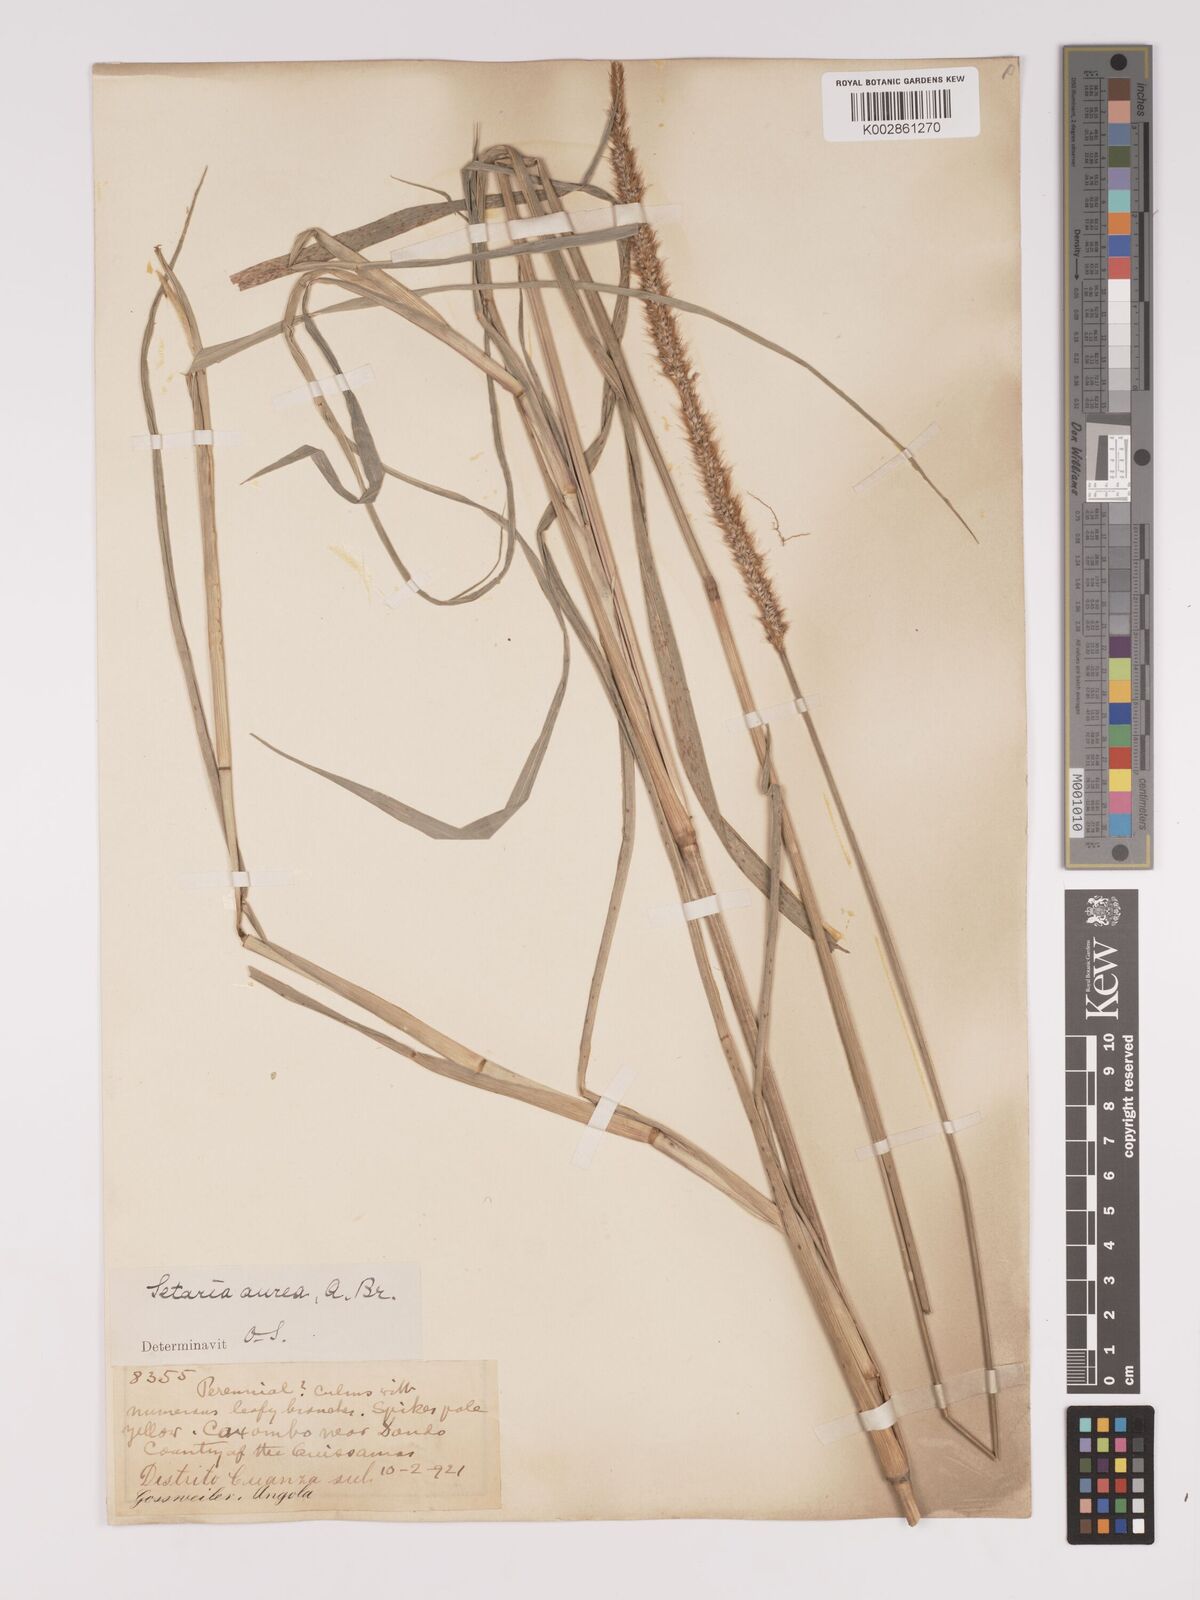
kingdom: Plantae
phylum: Tracheophyta
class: Liliopsida
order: Poales
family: Poaceae
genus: Setaria
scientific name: Setaria sphacelata
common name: African bristlegrass
